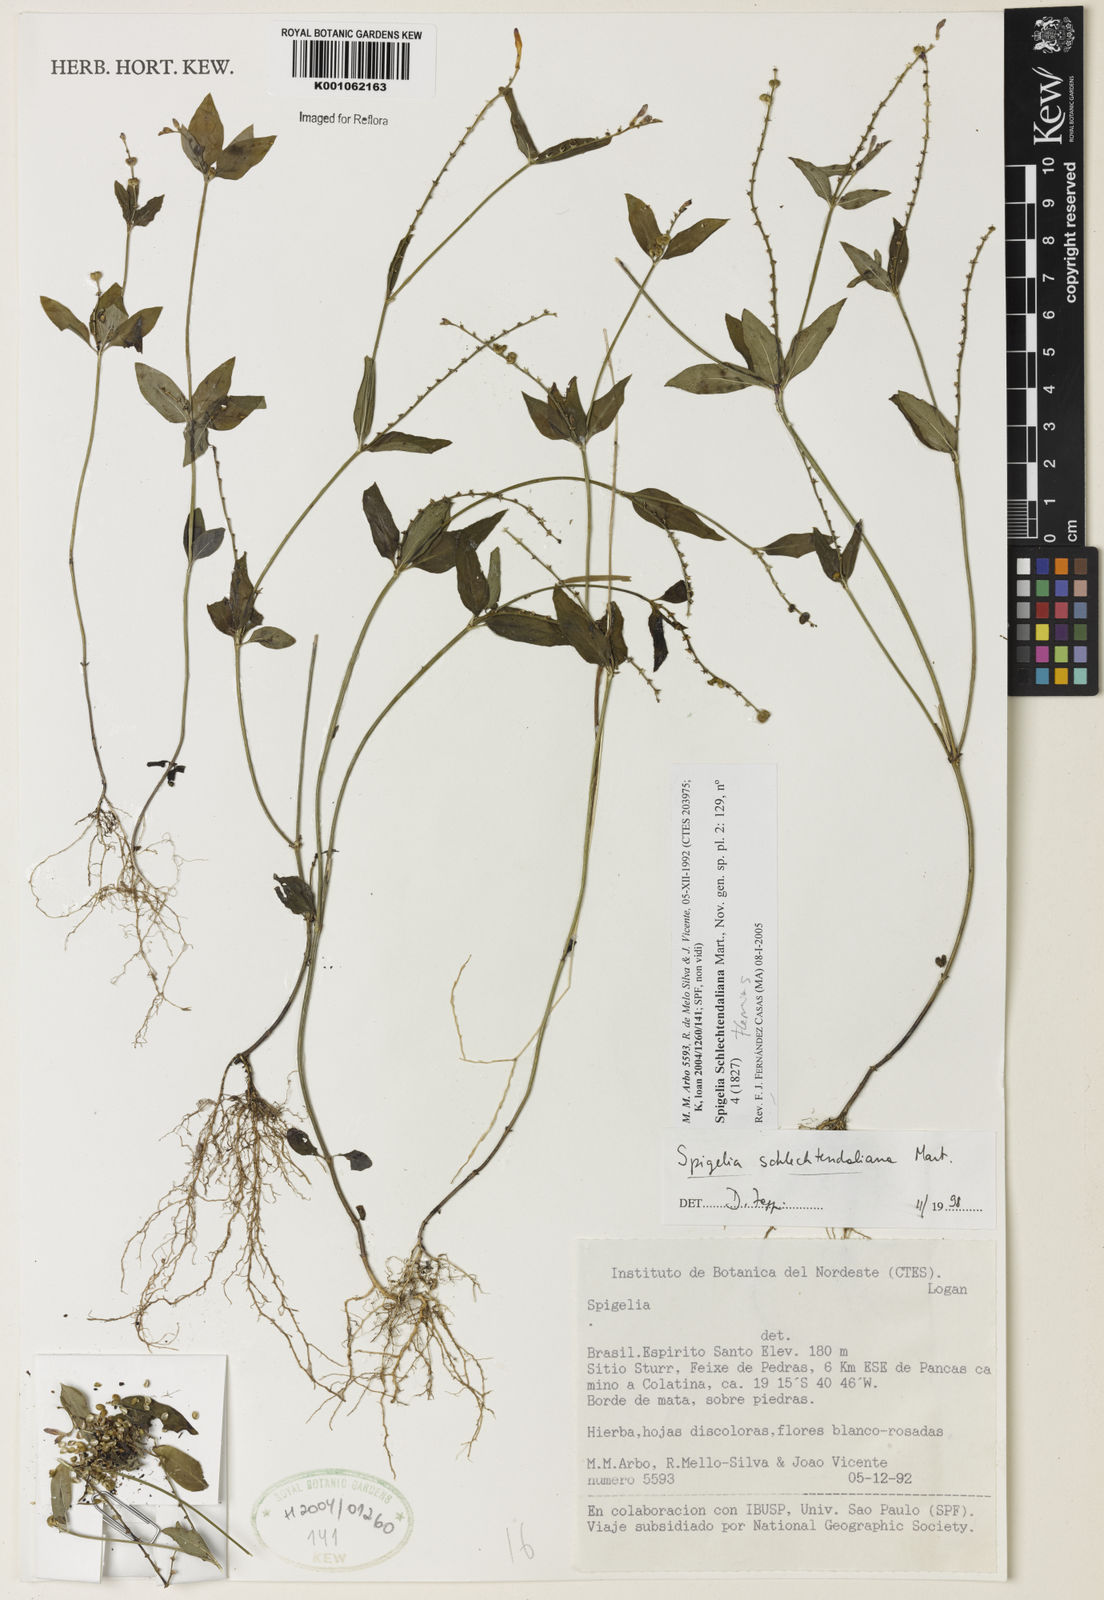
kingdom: Plantae
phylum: Tracheophyta
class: Magnoliopsida
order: Gentianales
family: Loganiaceae
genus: Spigelia
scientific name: Spigelia schlechtendaliana
